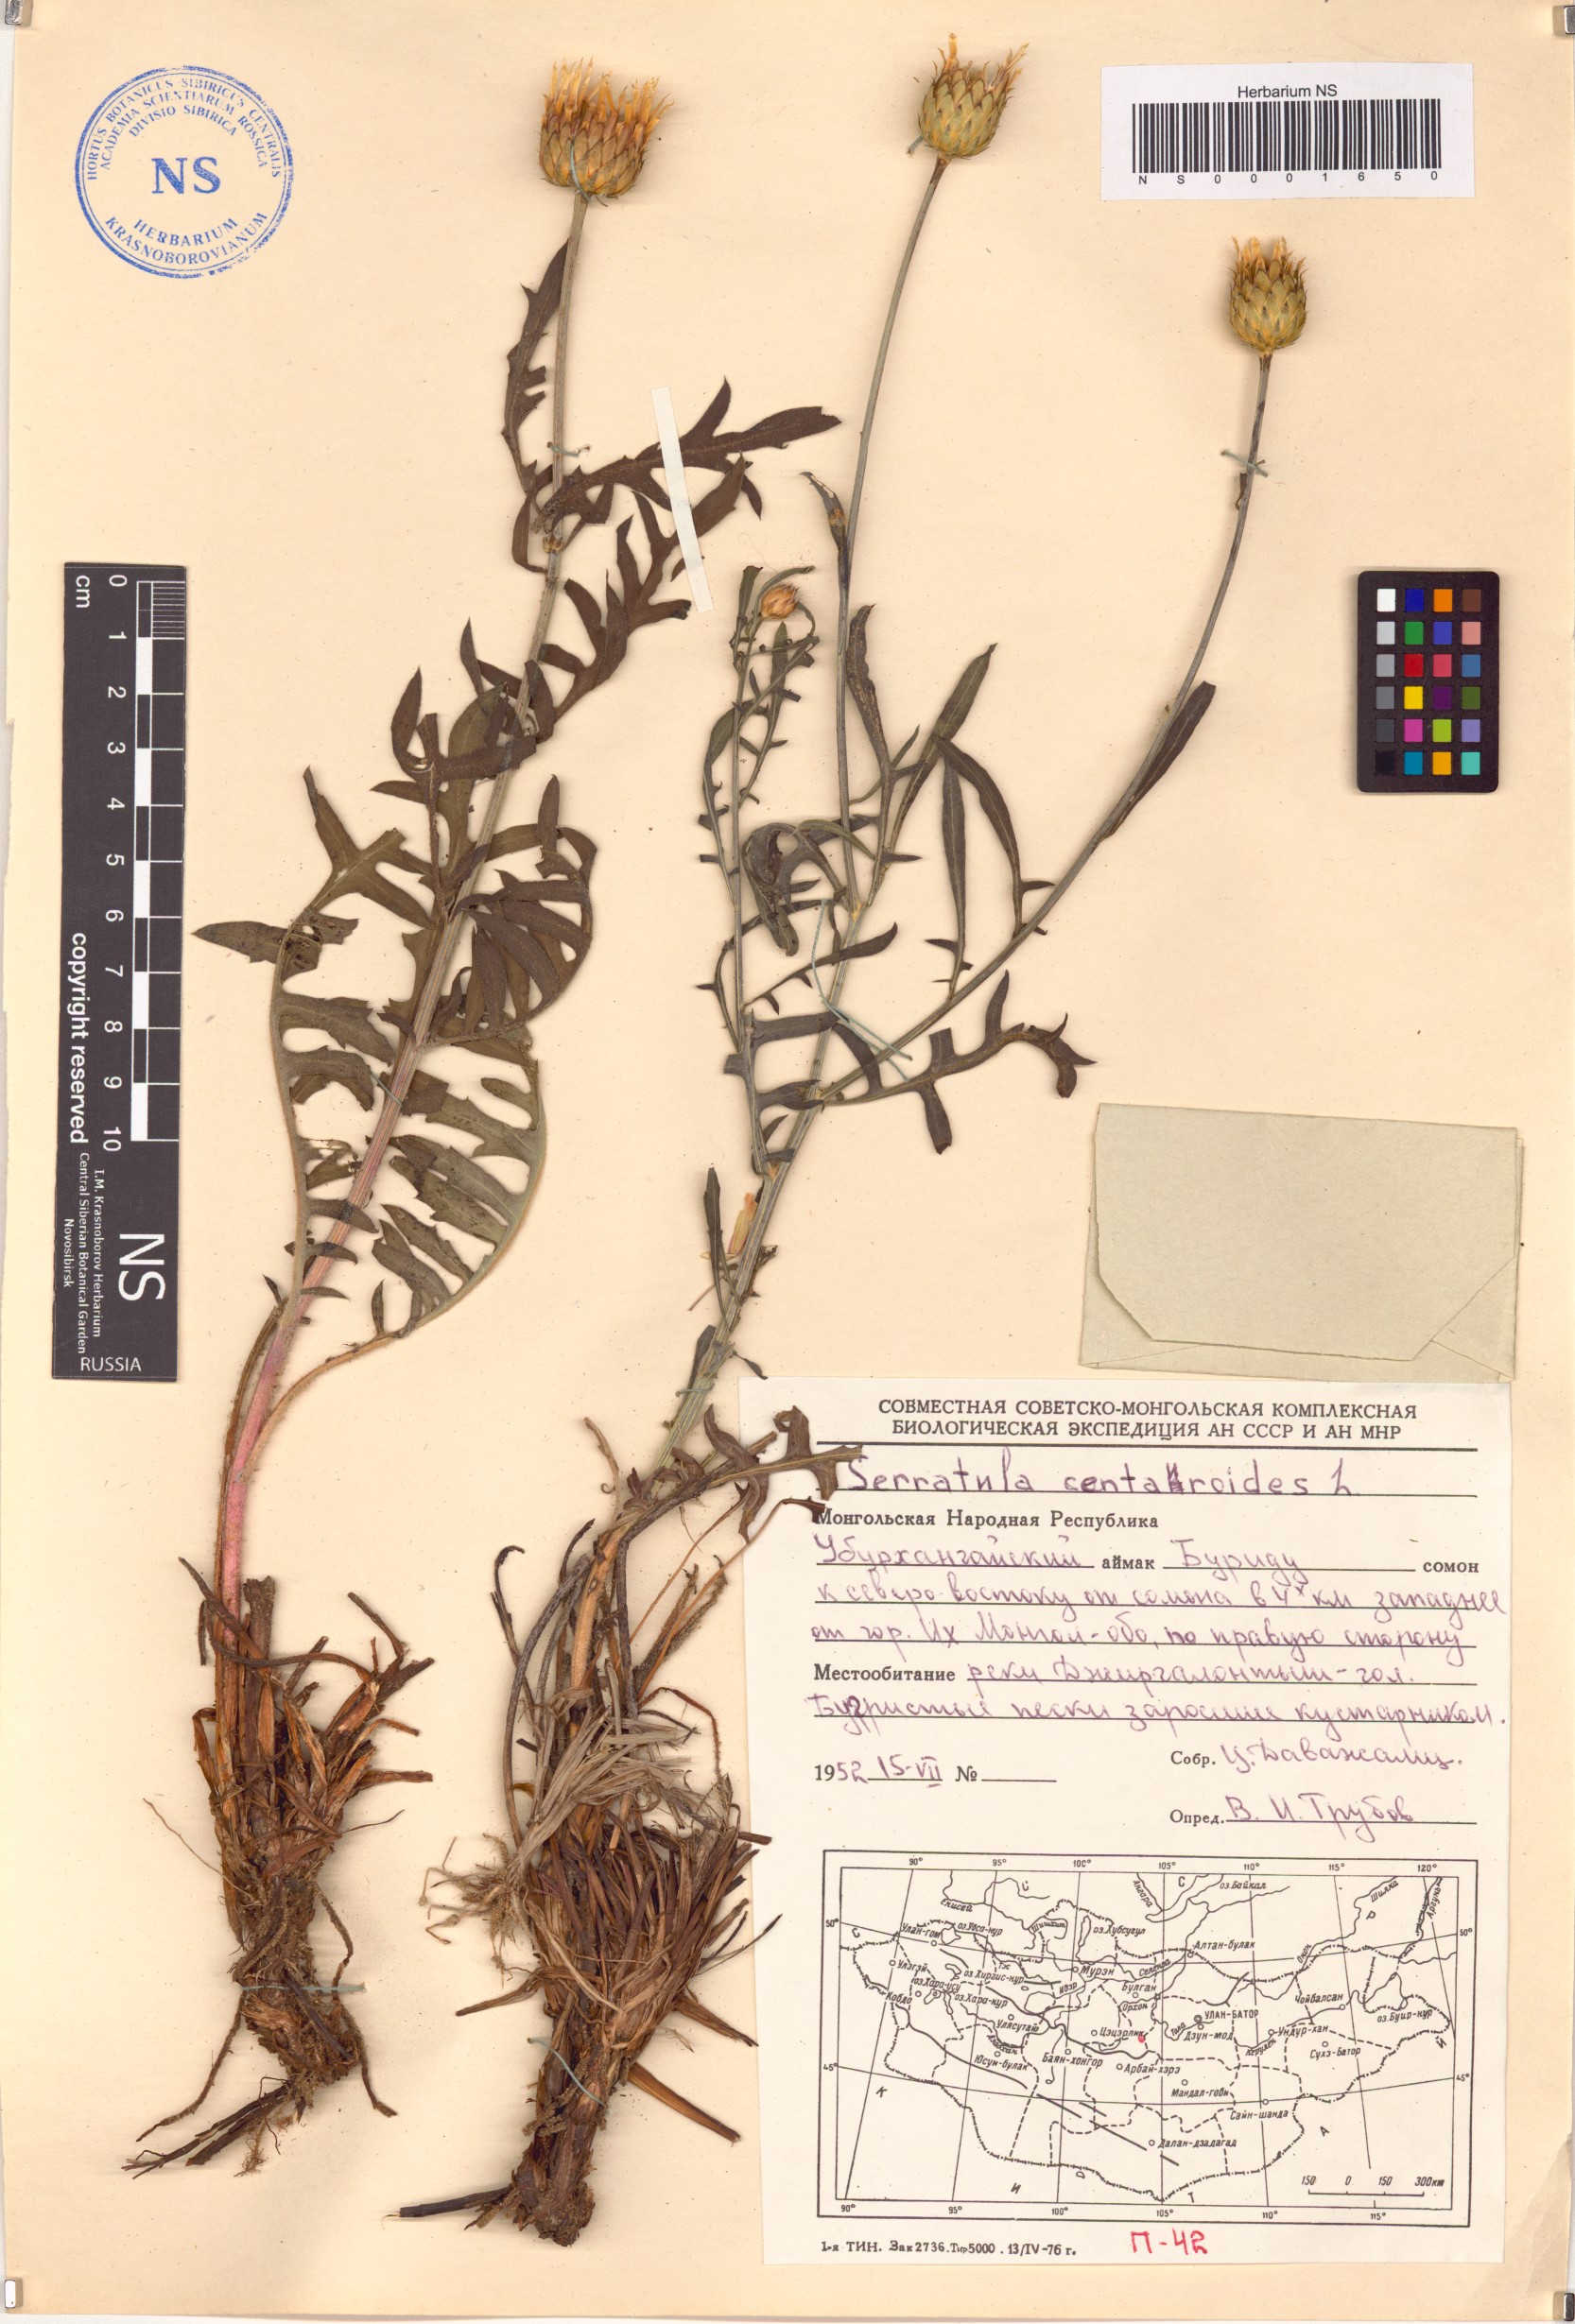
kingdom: Plantae
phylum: Tracheophyta
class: Magnoliopsida
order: Asterales
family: Asteraceae
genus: Klasea
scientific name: Klasea centauroides
